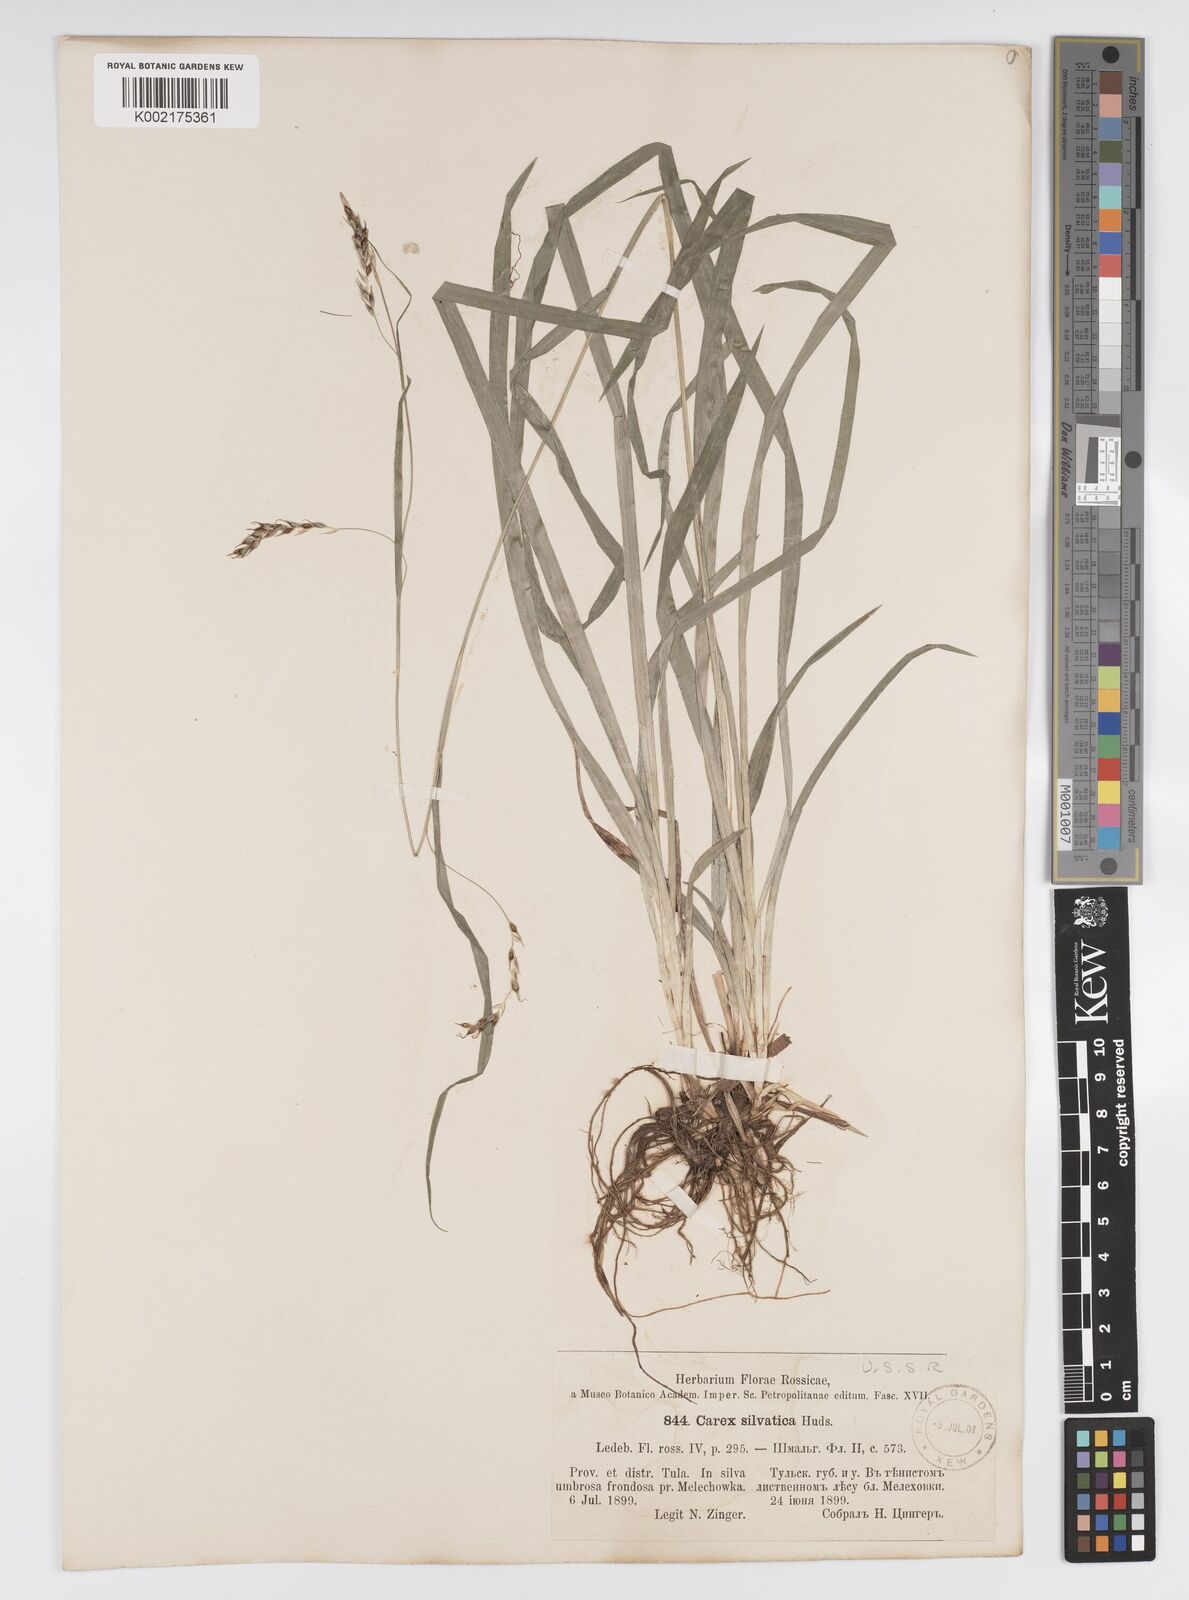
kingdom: Plantae
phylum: Tracheophyta
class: Liliopsida
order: Poales
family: Cyperaceae
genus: Carex
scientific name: Carex sylvatica
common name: Wood-sedge
